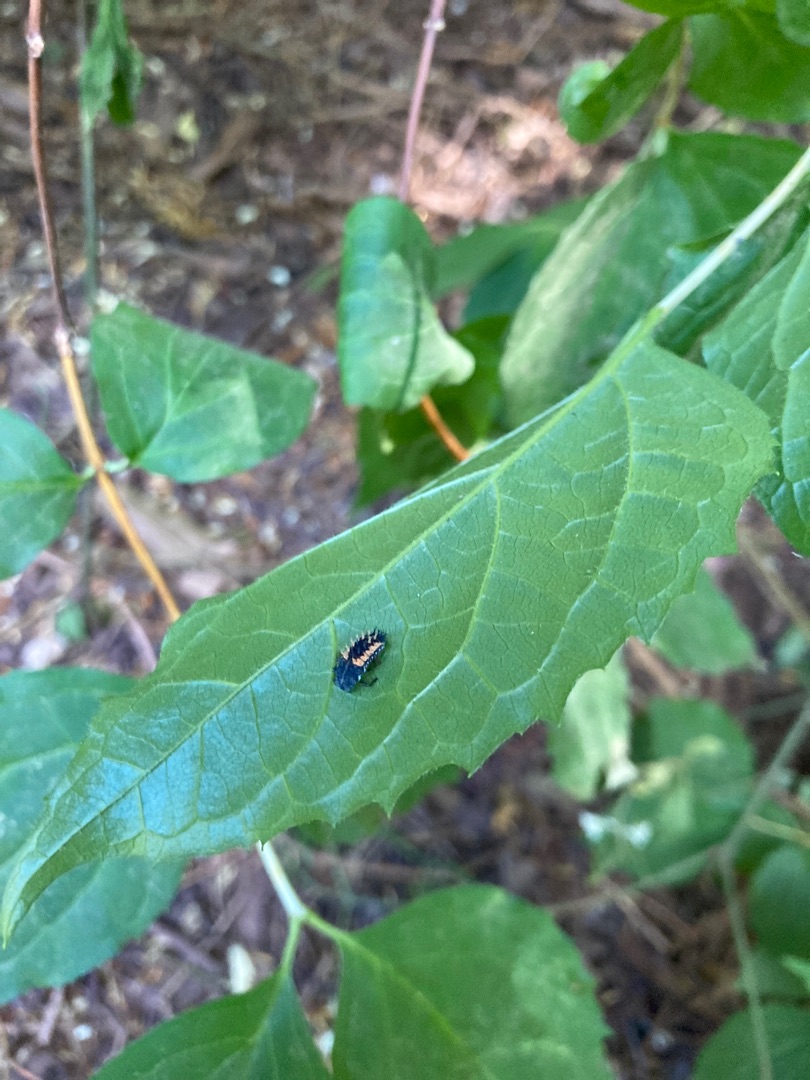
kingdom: Animalia
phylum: Arthropoda
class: Insecta
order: Coleoptera
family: Coccinellidae
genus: Harmonia
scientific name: Harmonia axyridis
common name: Harlekinmariehøne
